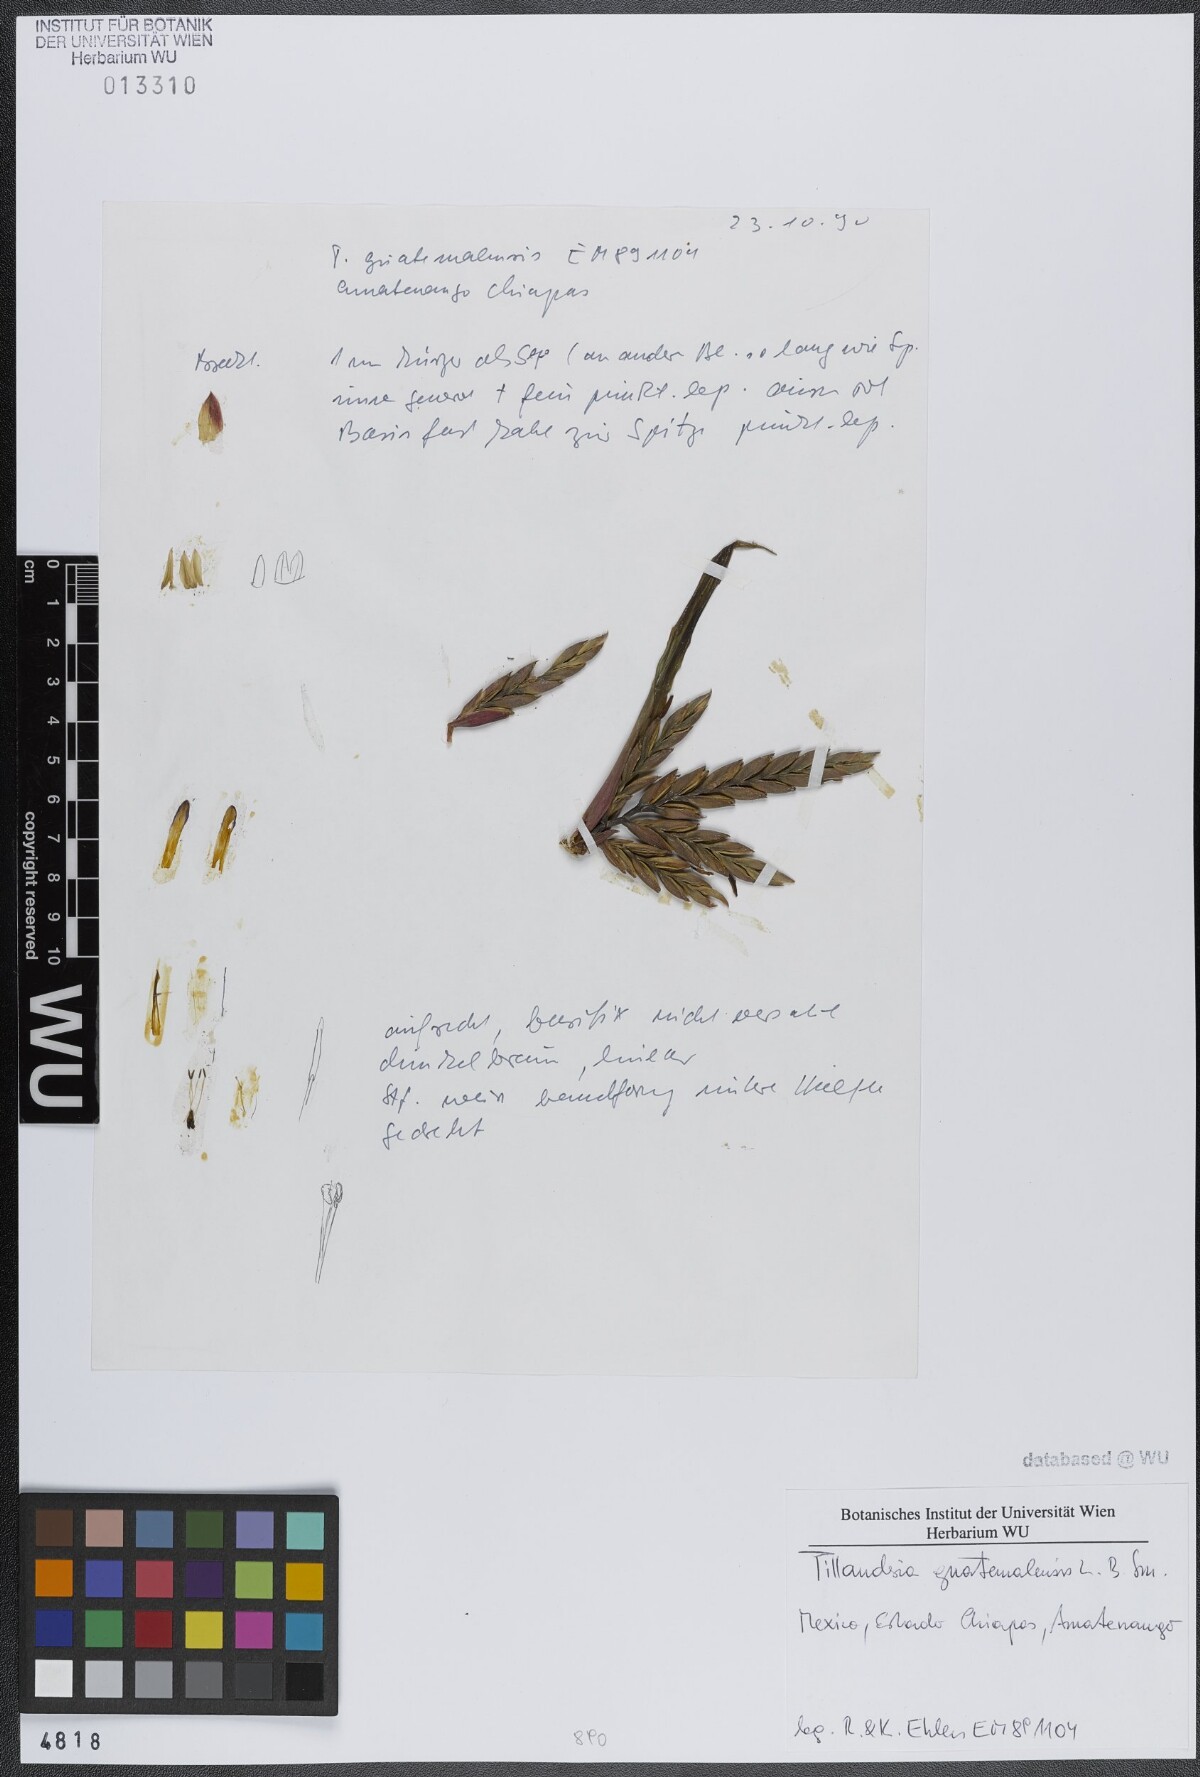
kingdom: Plantae
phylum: Tracheophyta
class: Liliopsida
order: Poales
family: Bromeliaceae
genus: Tillandsia
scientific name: Tillandsia guatemalensis
